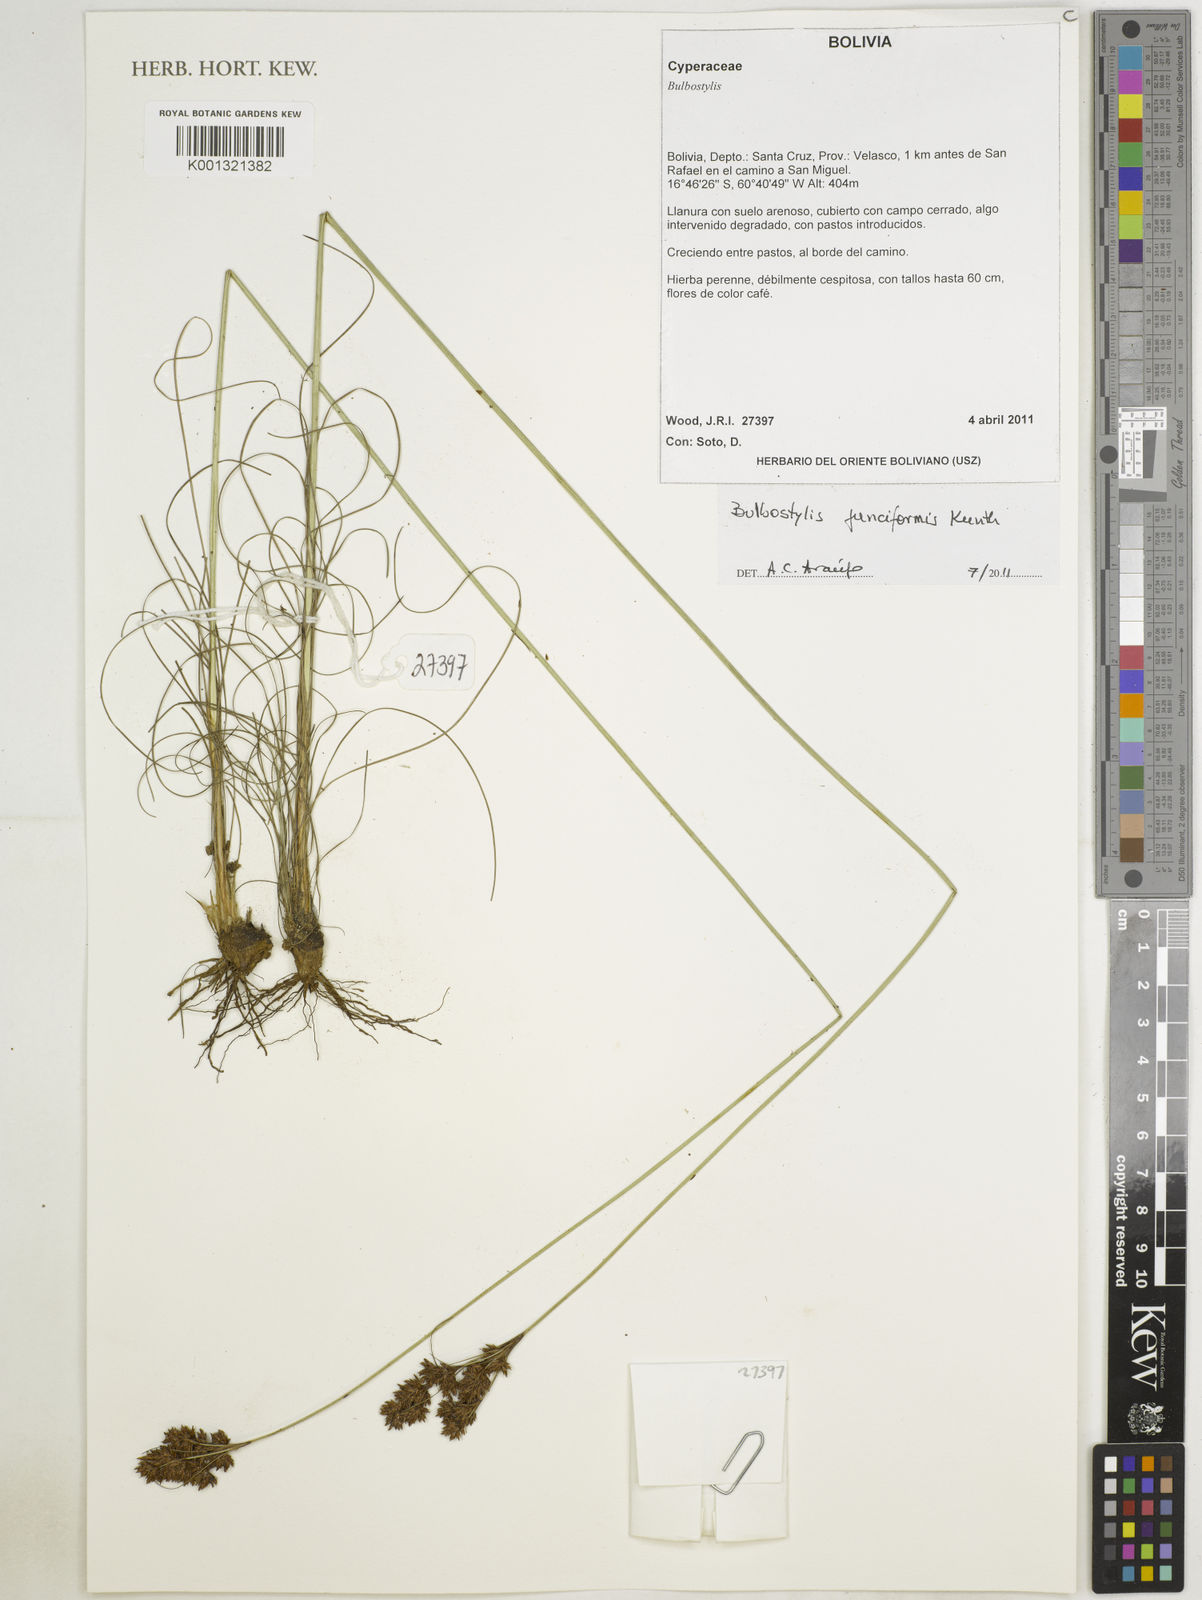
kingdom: Plantae
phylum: Tracheophyta
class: Liliopsida
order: Poales
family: Cyperaceae
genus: Bulbostylis
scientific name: Bulbostylis junciformis
